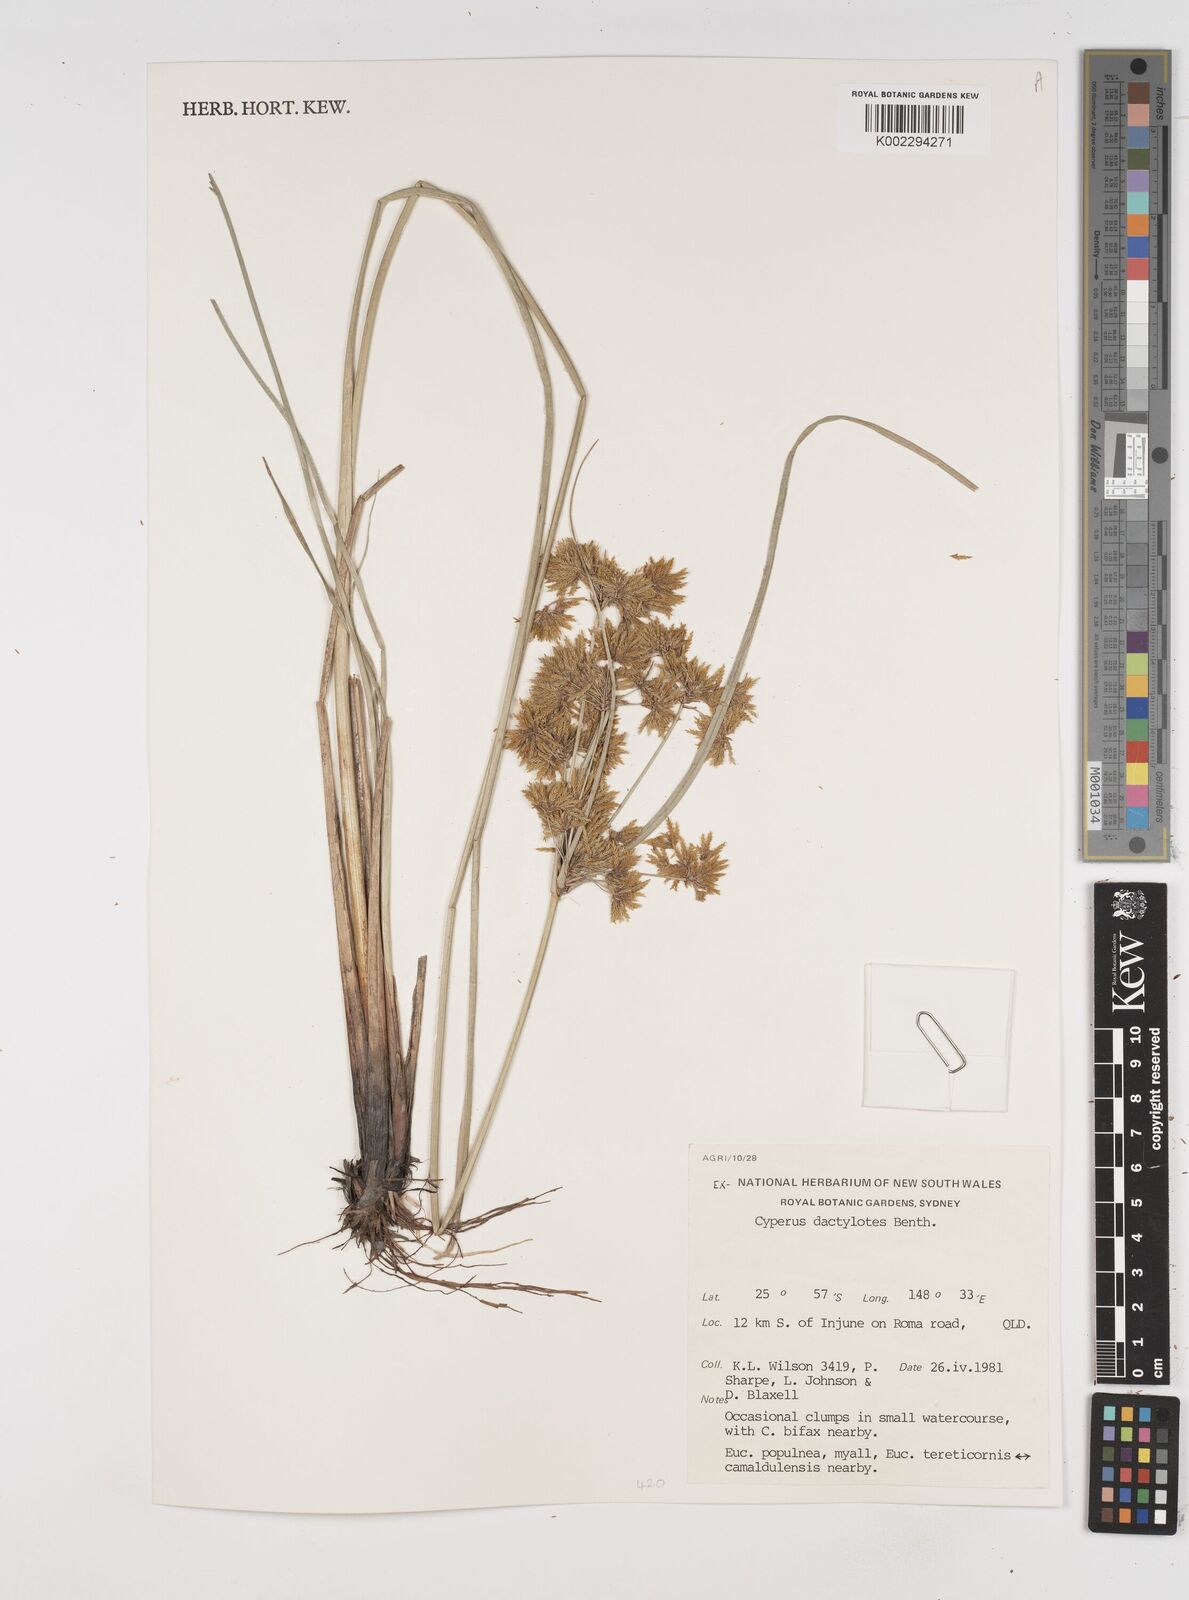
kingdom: Plantae
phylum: Tracheophyta
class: Liliopsida
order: Poales
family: Cyperaceae
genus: Cyperus
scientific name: Cyperus dactylotes
